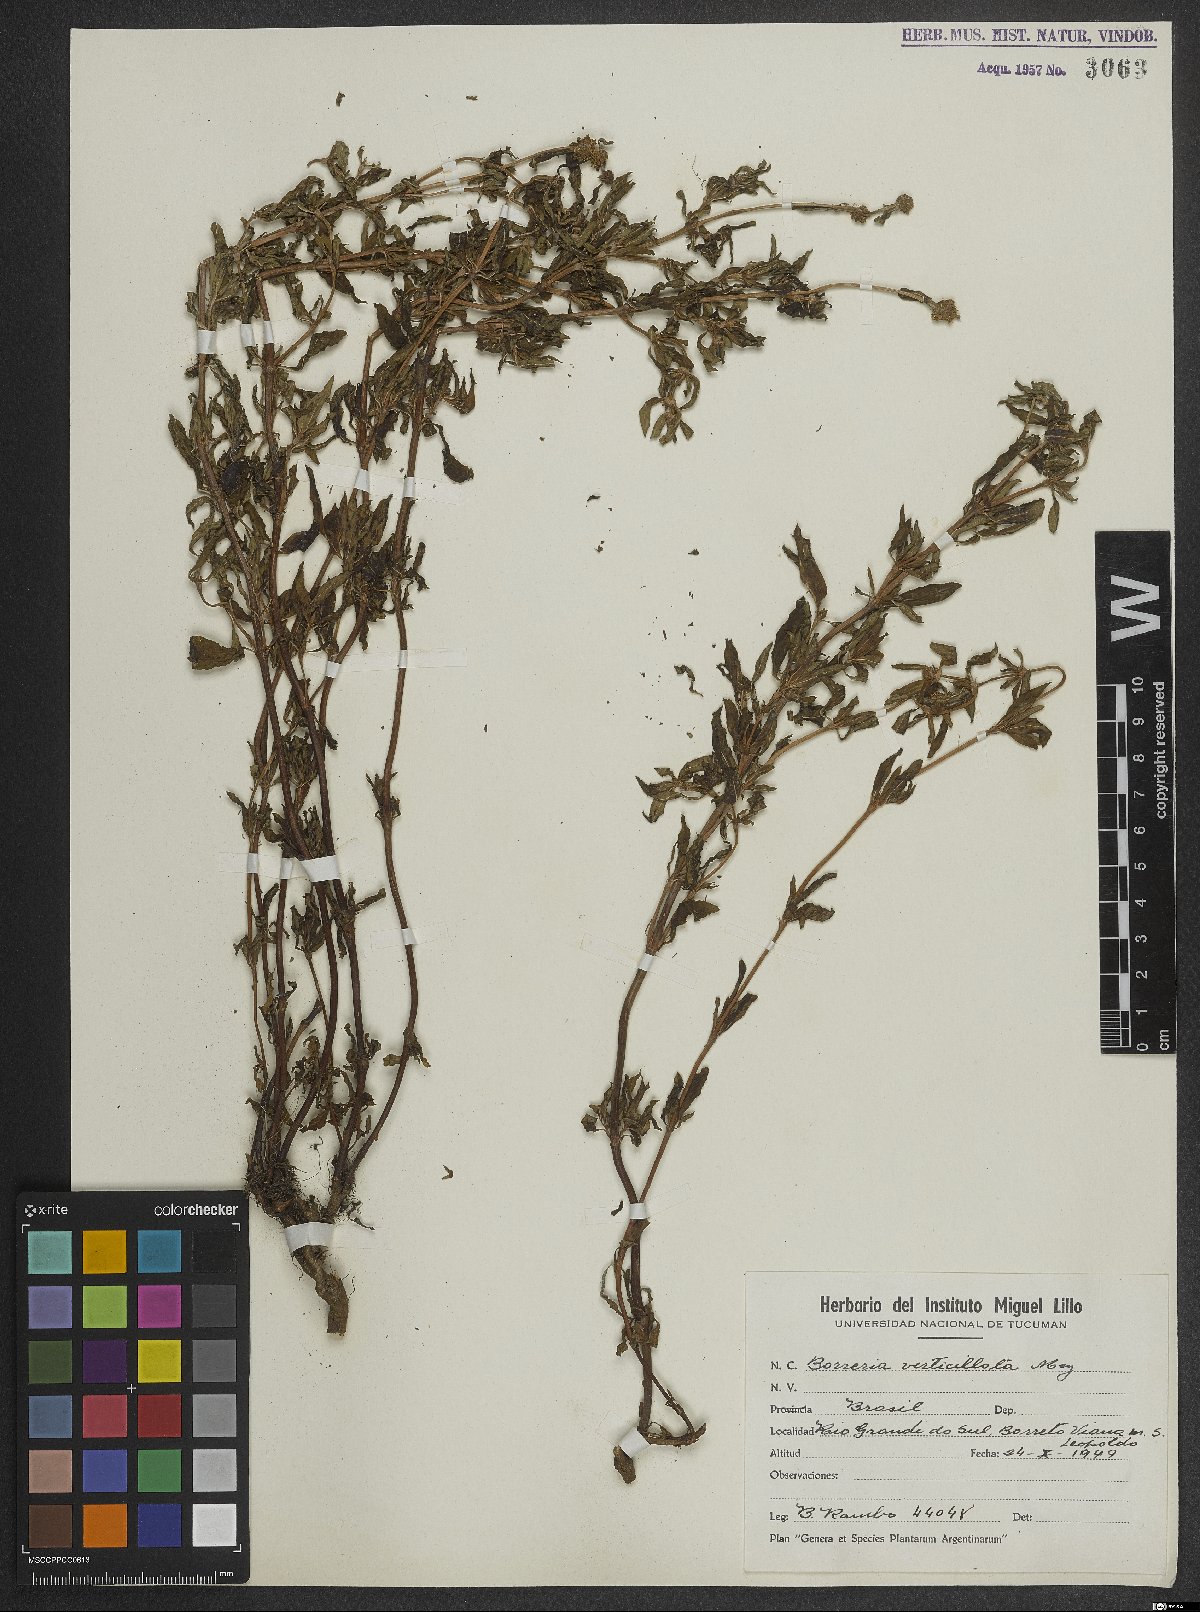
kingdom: Plantae
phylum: Tracheophyta
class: Magnoliopsida
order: Gentianales
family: Rubiaceae
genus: Spermacoce
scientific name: Spermacoce verticillata
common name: Shrubby false buttonweed
